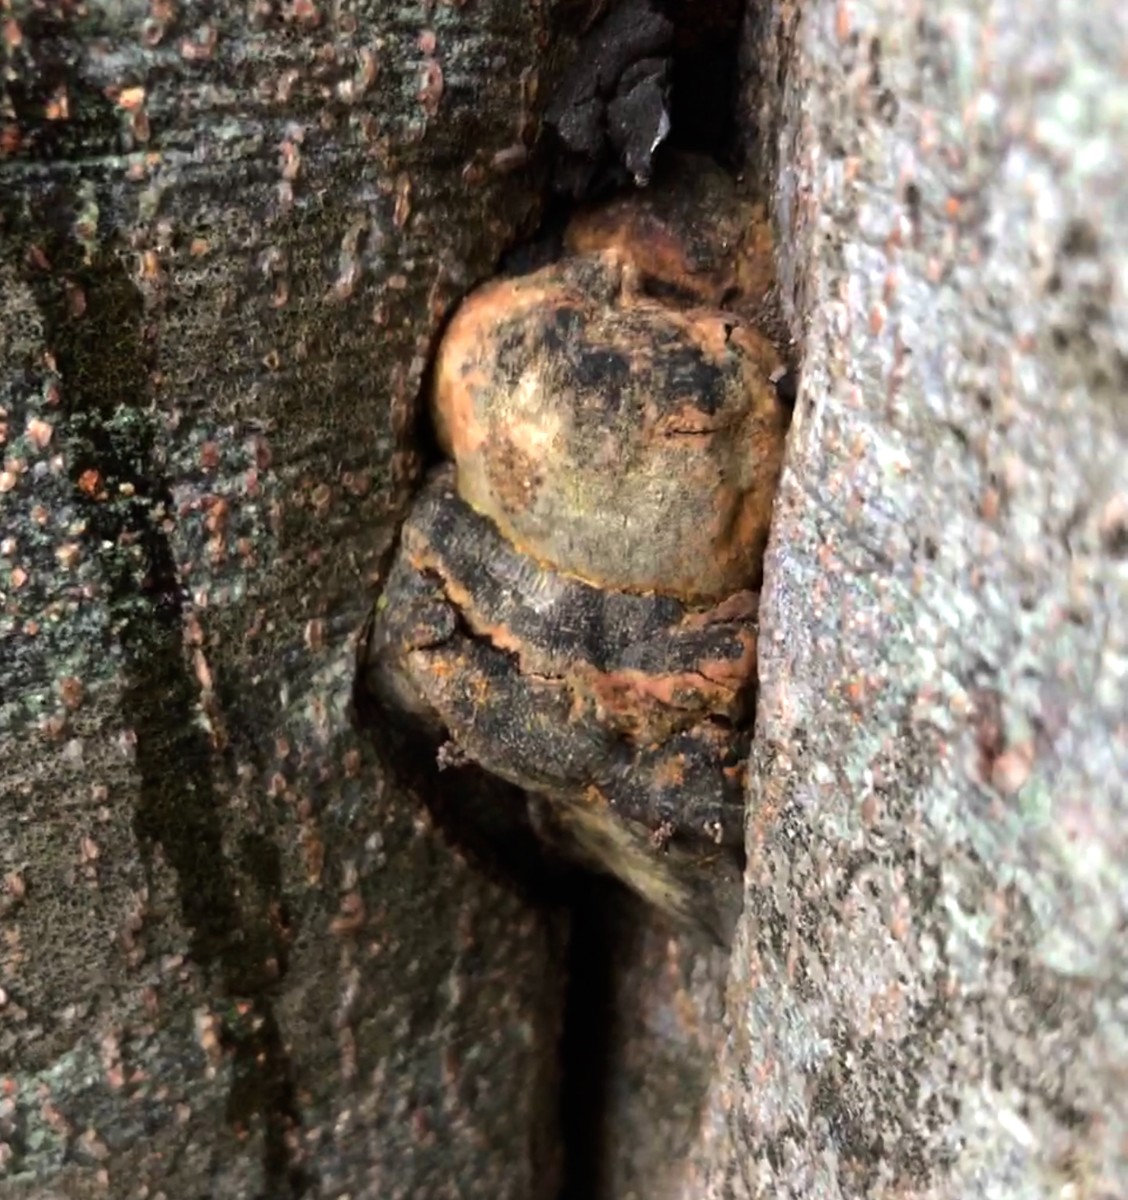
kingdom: Fungi
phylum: Basidiomycota
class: Agaricomycetes
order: Polyporales
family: Polyporaceae
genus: Ganoderma
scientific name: Ganoderma pfeifferi
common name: kobberrød lakporesvamp
